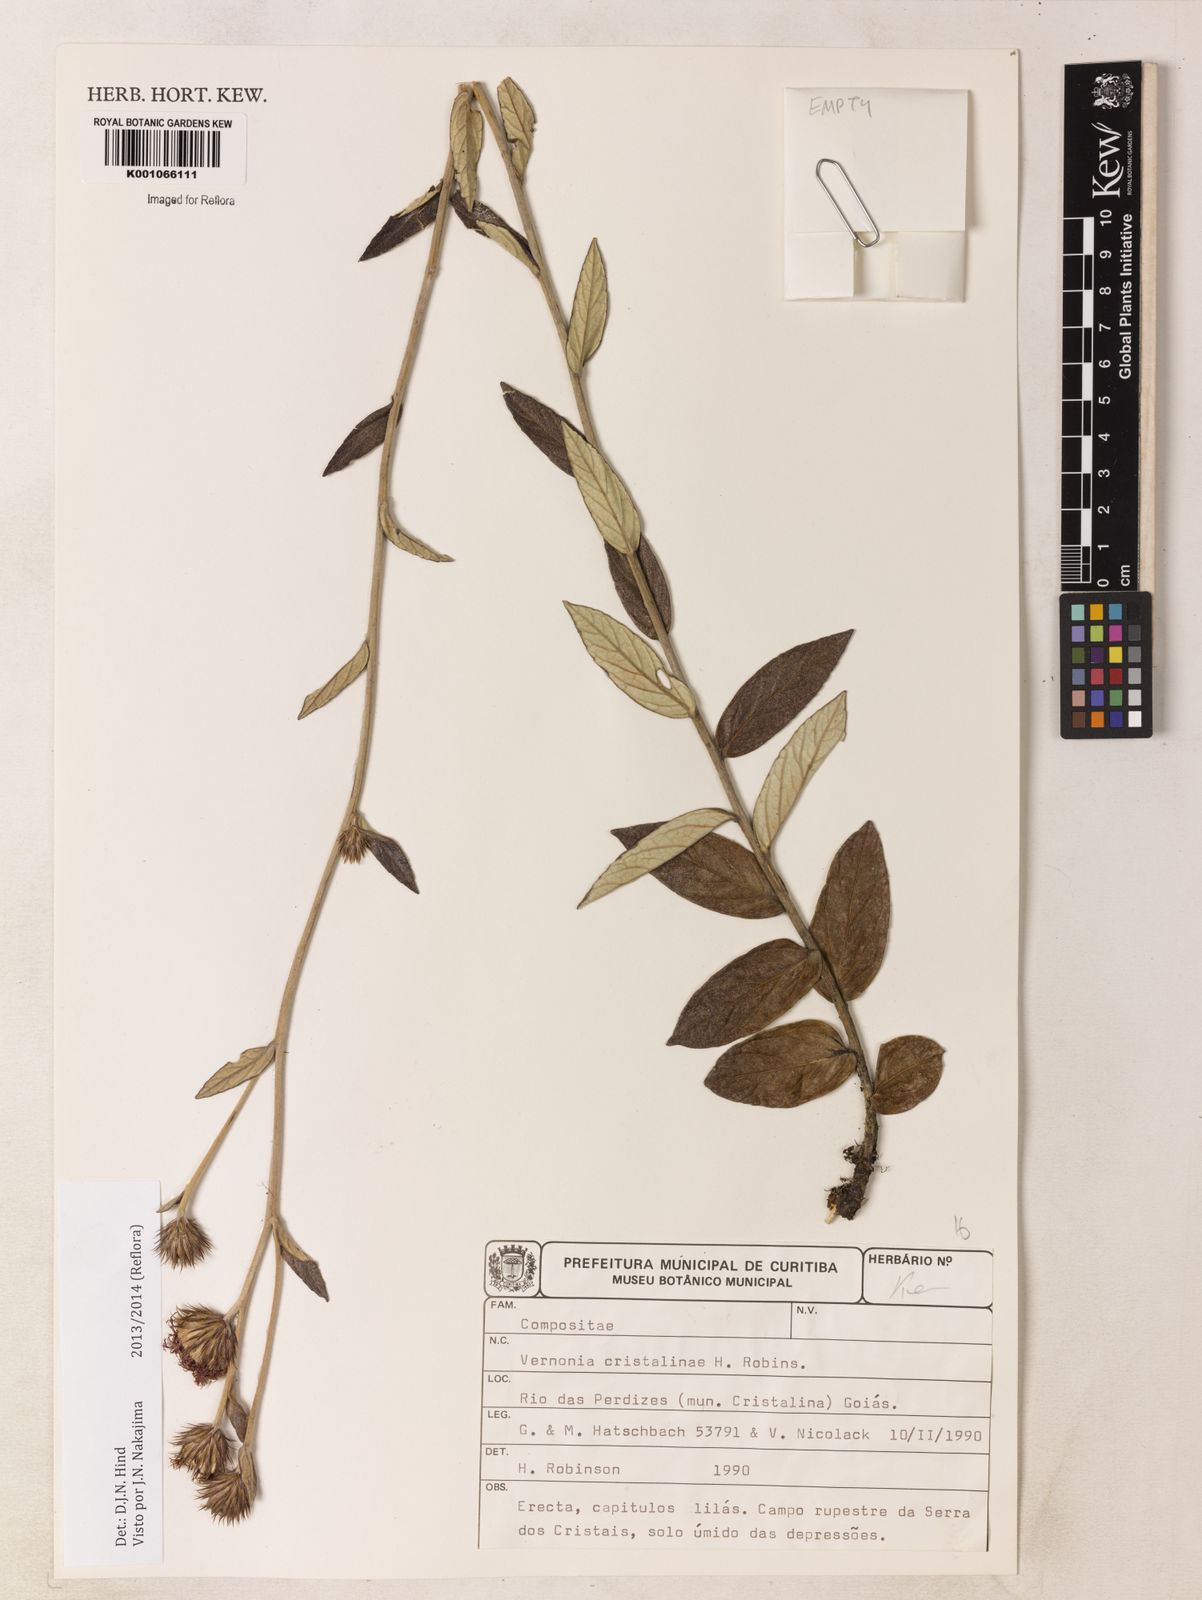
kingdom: Plantae
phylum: Tracheophyta
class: Magnoliopsida
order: Asterales
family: Asteraceae
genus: Lessingianthus
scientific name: Lessingianthus cristalinae
